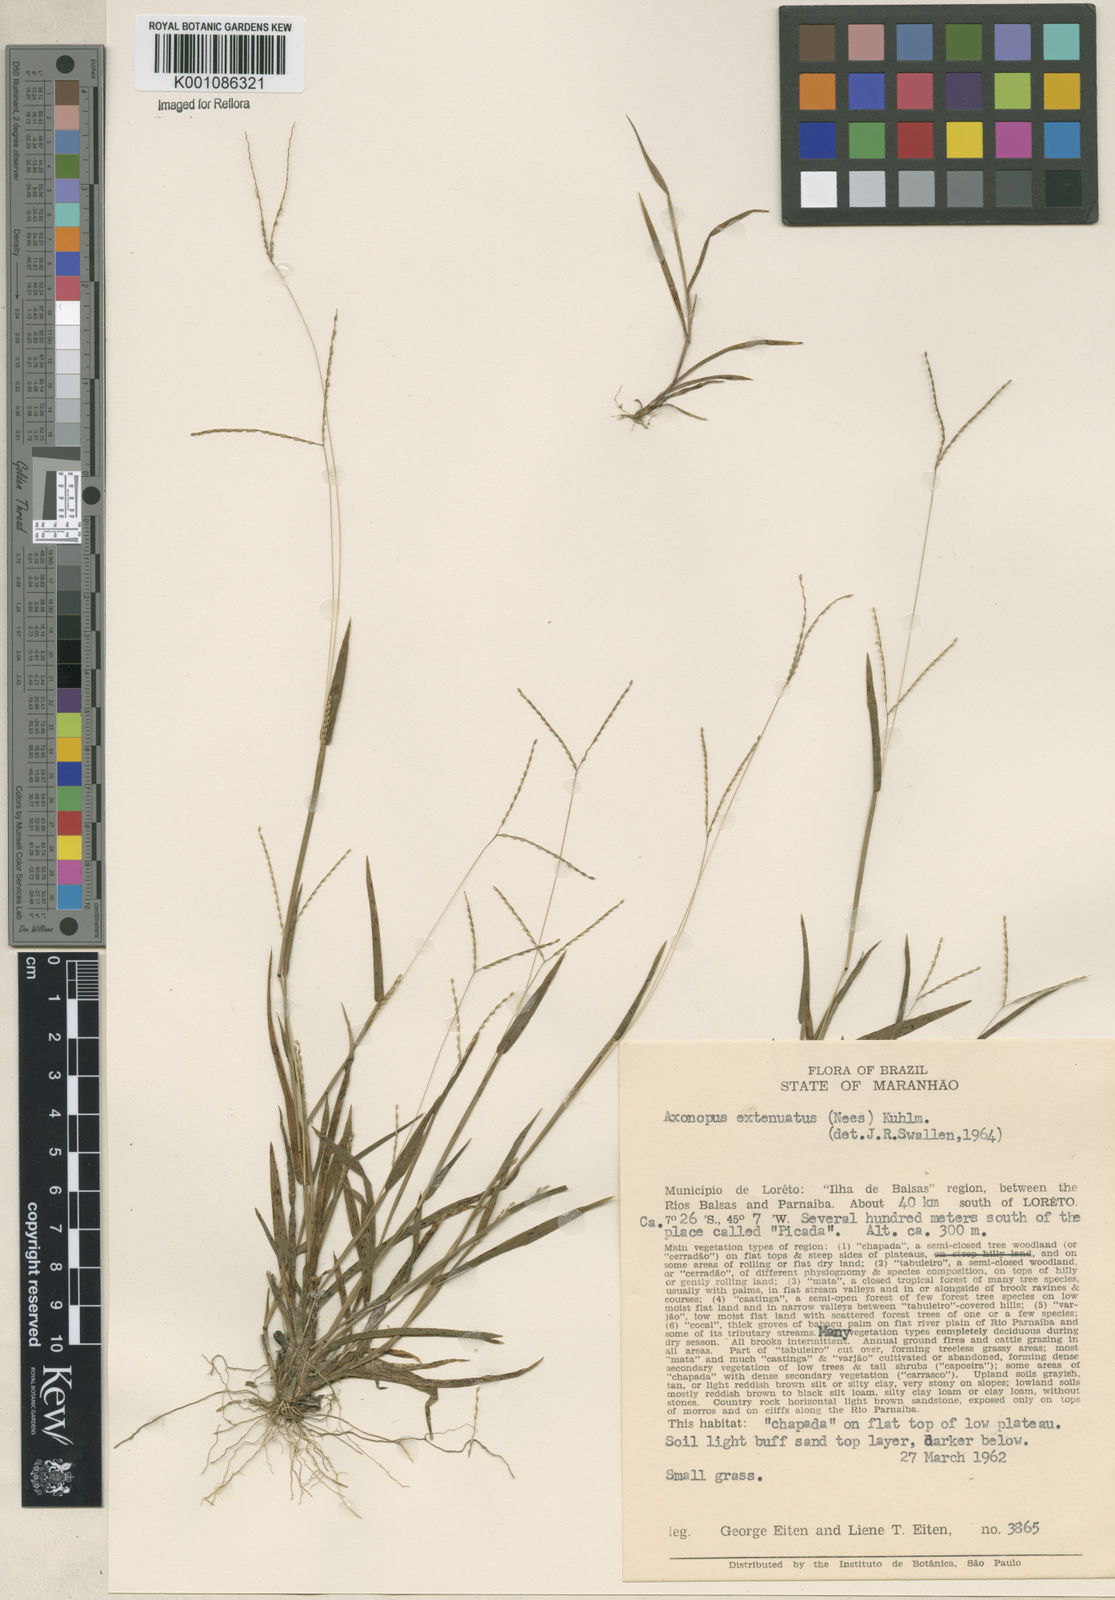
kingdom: Plantae
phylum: Tracheophyta
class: Liliopsida
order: Poales
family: Poaceae
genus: Axonopus
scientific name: Axonopus capillaris
